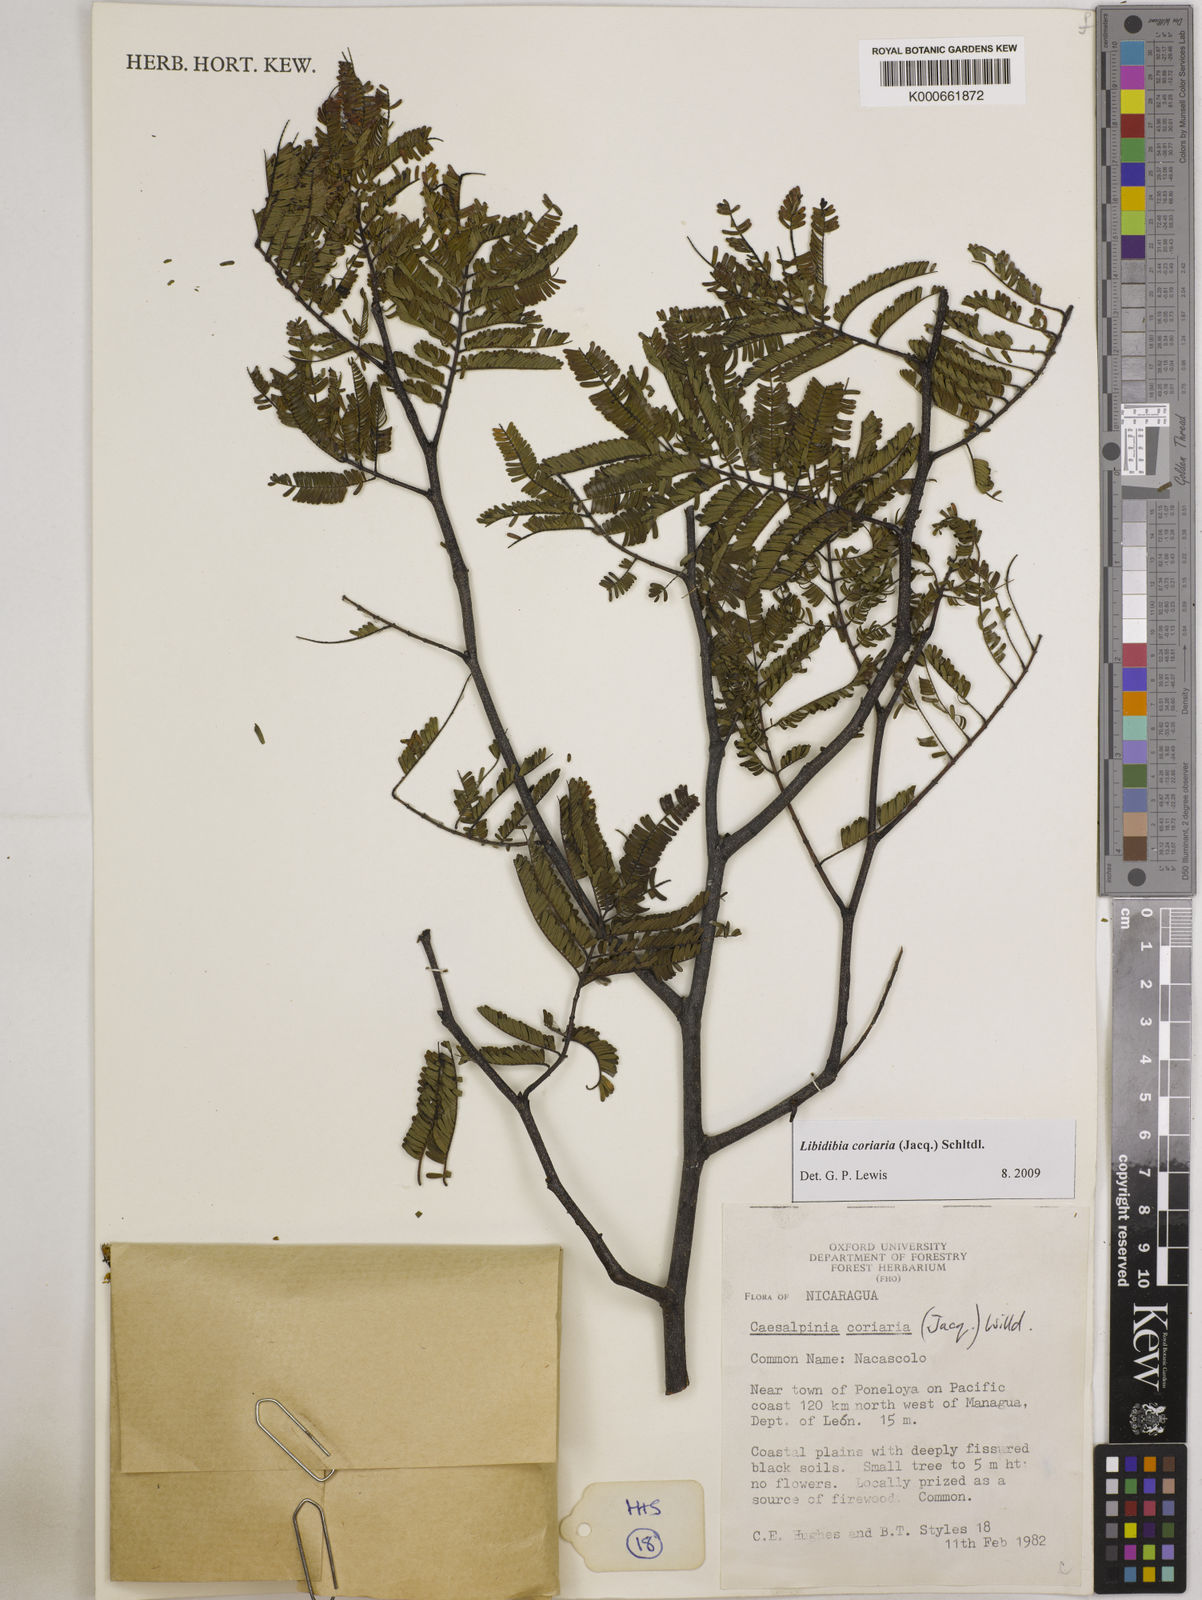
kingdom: Plantae
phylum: Tracheophyta
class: Magnoliopsida
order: Fabales
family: Fabaceae
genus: Libidibia
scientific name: Libidibia coriaria
